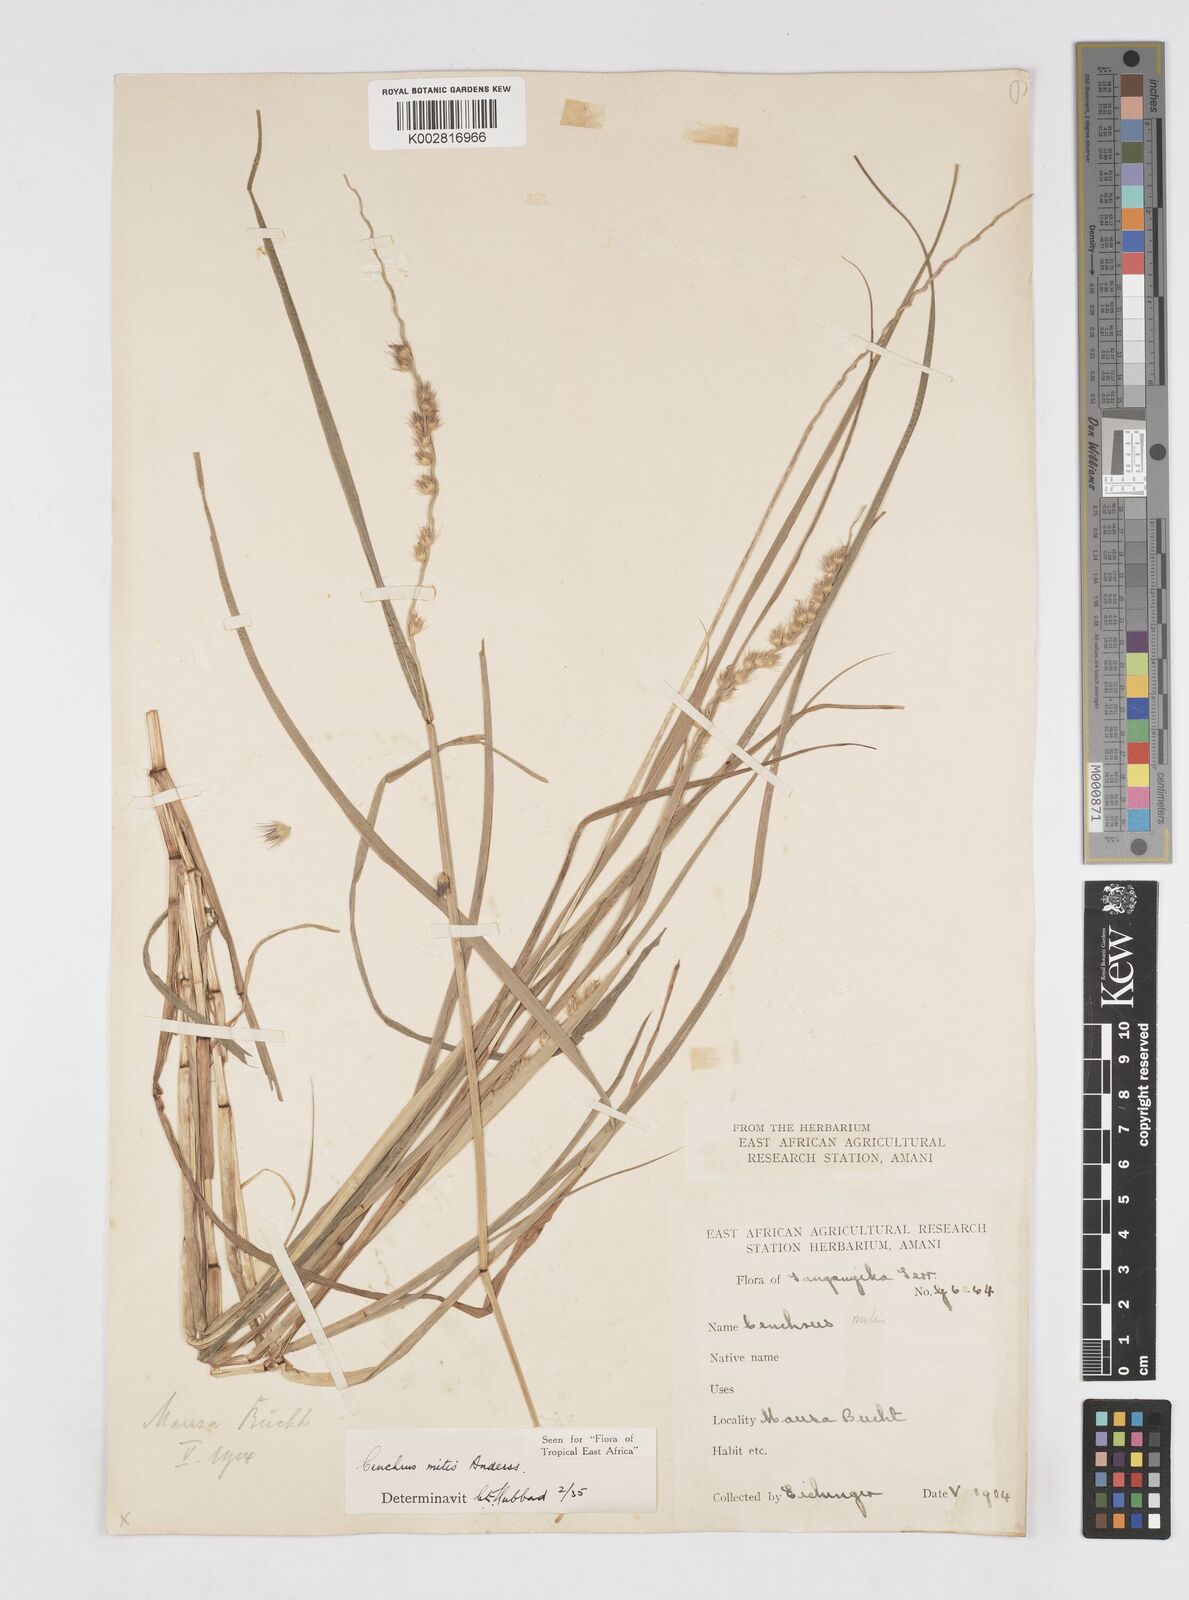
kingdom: Plantae
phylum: Tracheophyta
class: Liliopsida
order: Poales
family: Poaceae
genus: Cenchrus
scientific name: Cenchrus mitis
